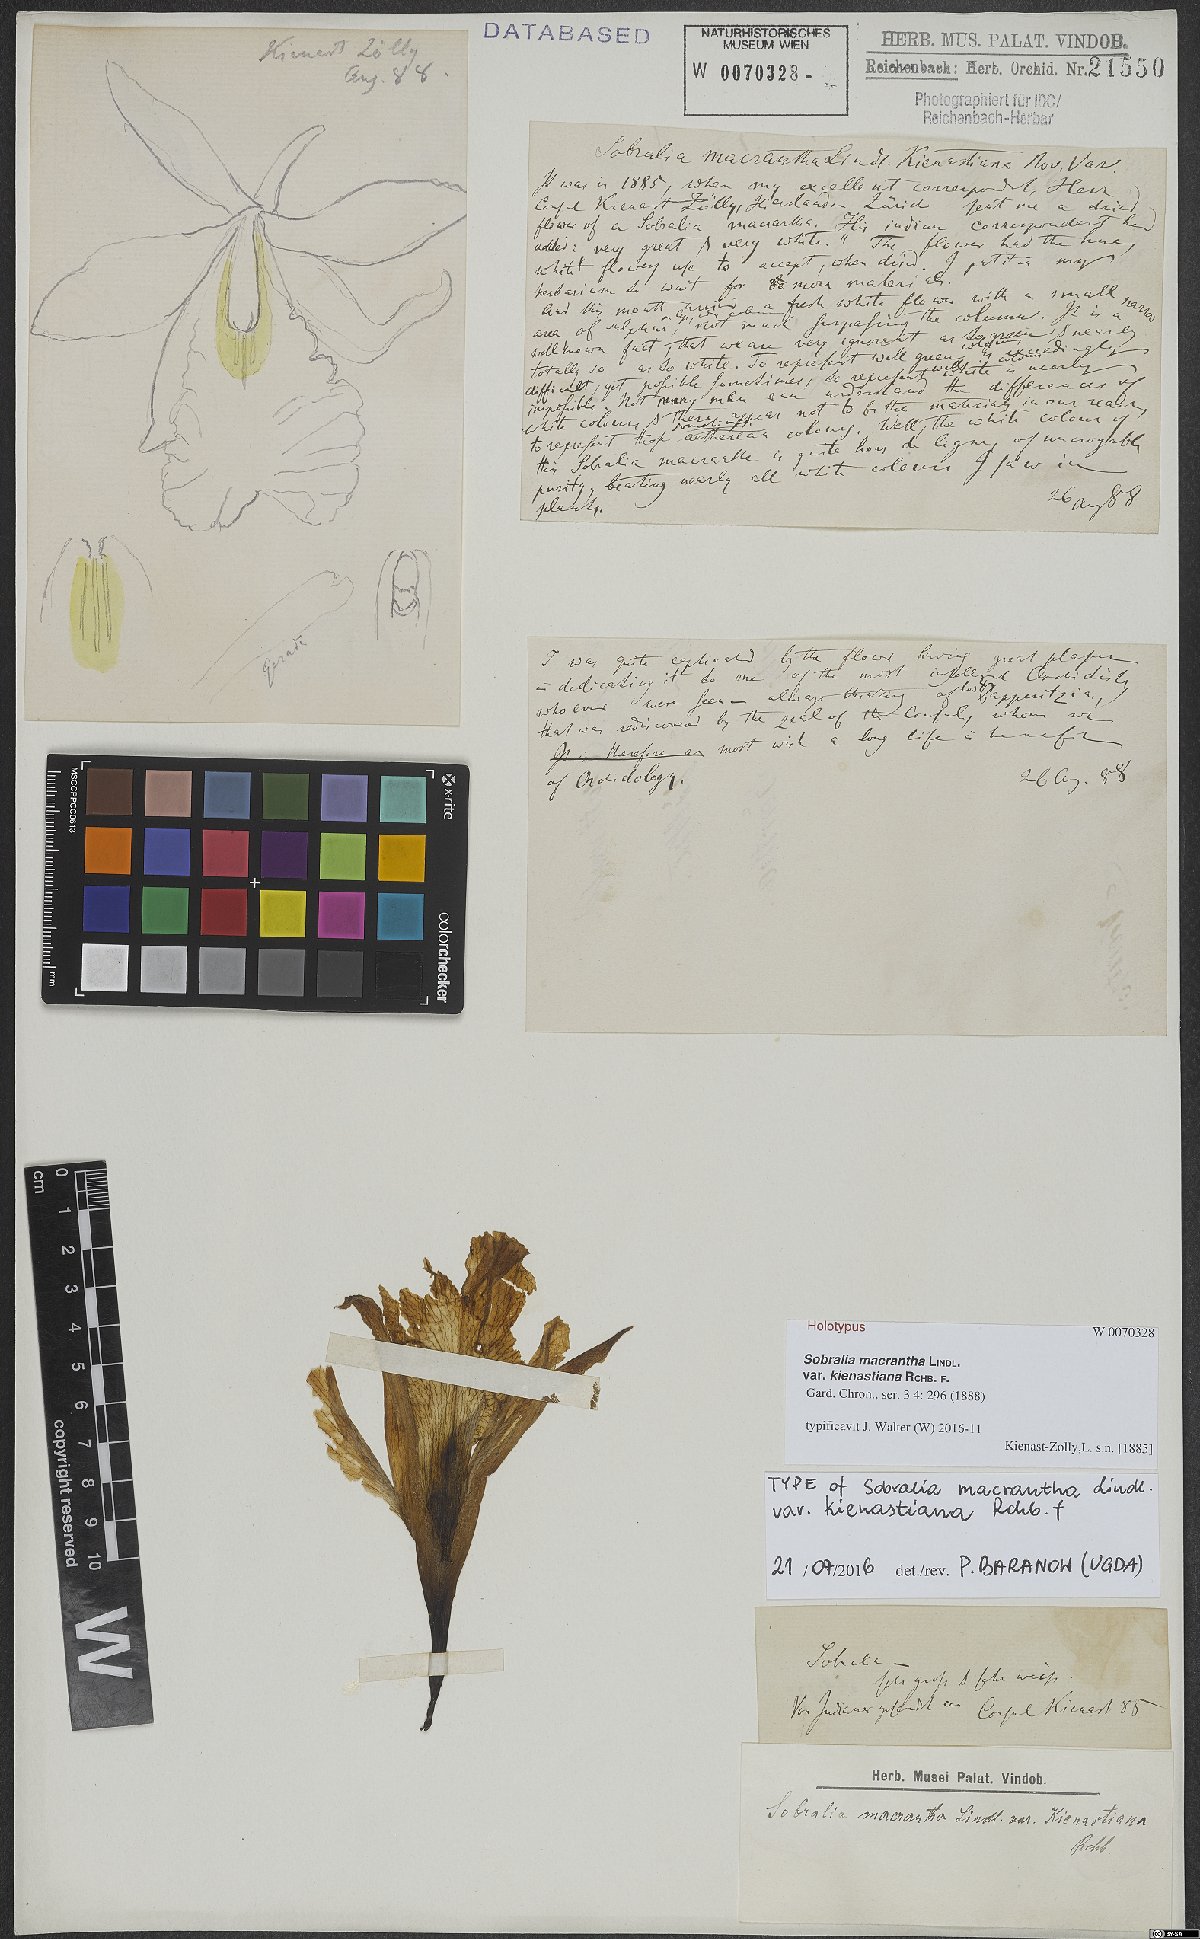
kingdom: Plantae
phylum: Tracheophyta
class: Liliopsida
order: Asparagales
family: Orchidaceae
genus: Sobralia
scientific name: Sobralia macrantha
